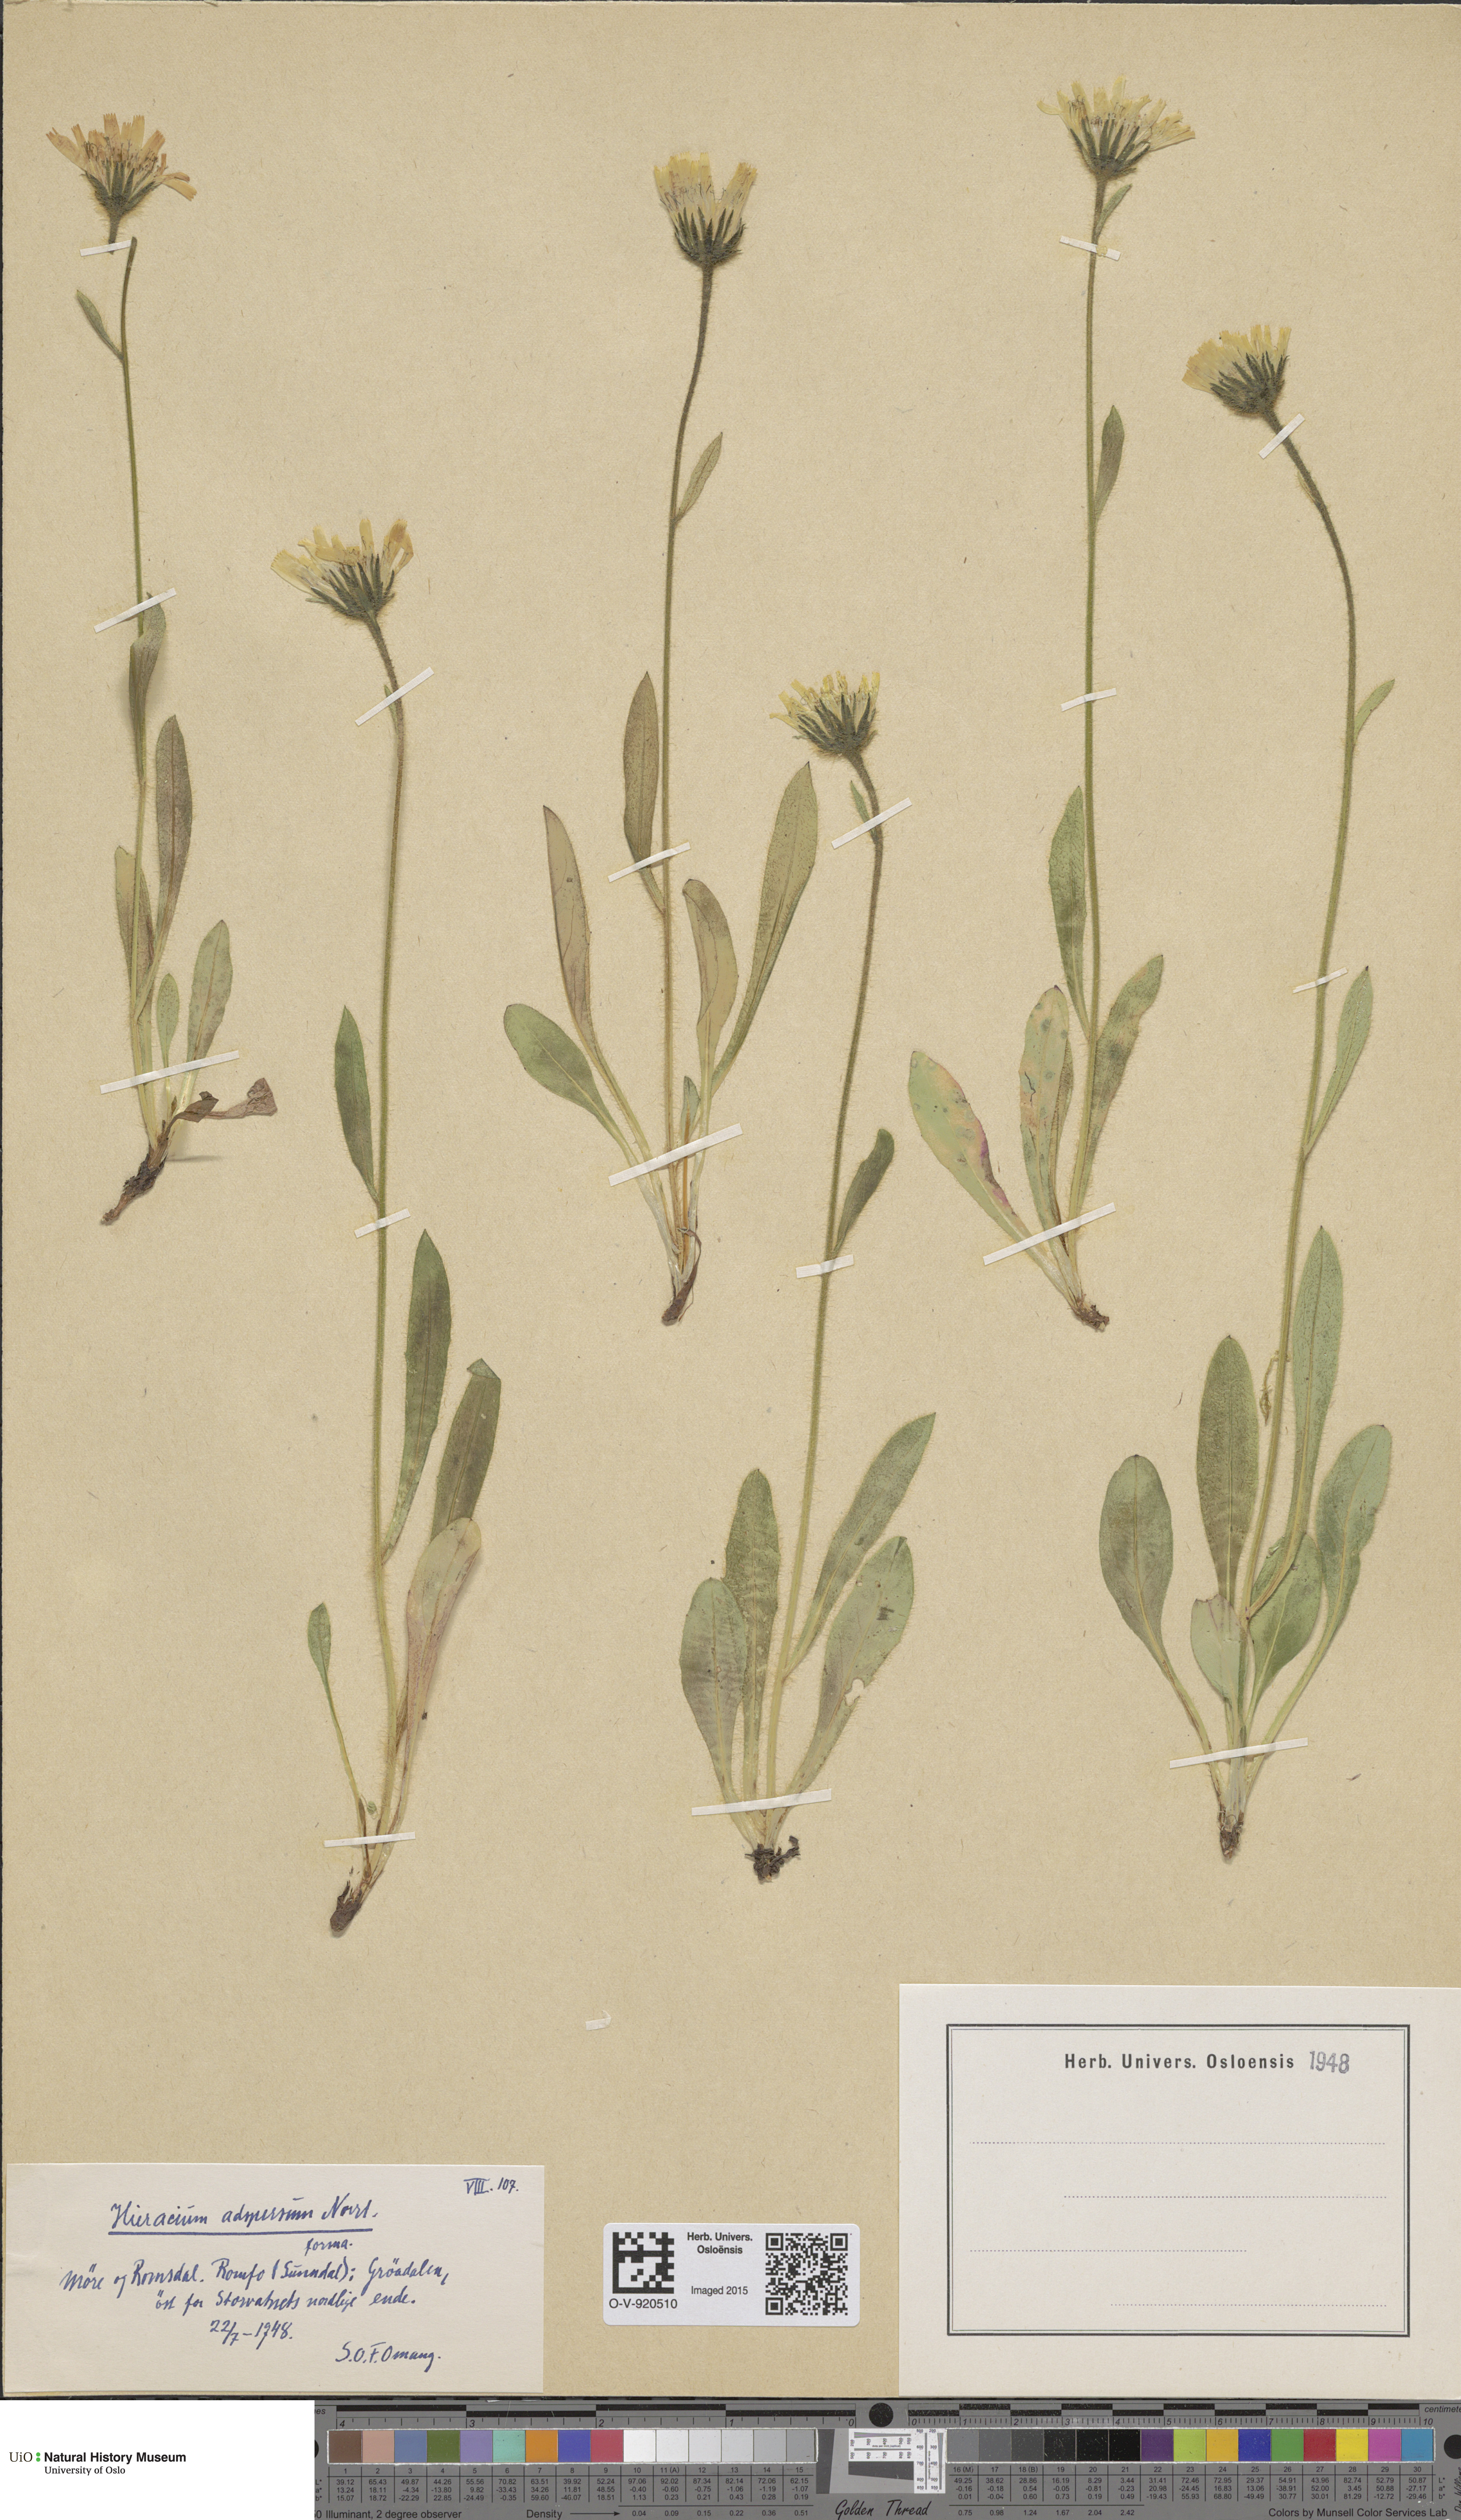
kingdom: Plantae
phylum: Tracheophyta
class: Magnoliopsida
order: Asterales
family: Asteraceae
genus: Hieracium
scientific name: Hieracium alpinum
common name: Alpine hawkweed
